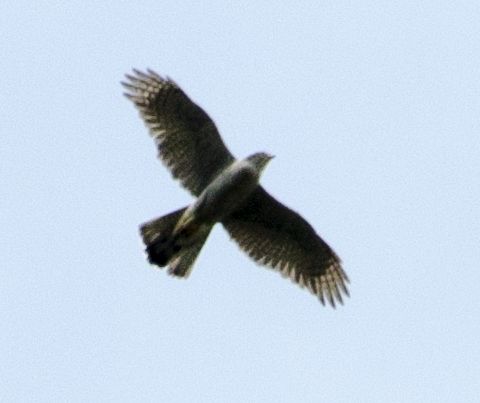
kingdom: Animalia
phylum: Chordata
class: Aves
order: Accipitriformes
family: Accipitridae
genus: Accipiter
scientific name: Accipiter nisus
